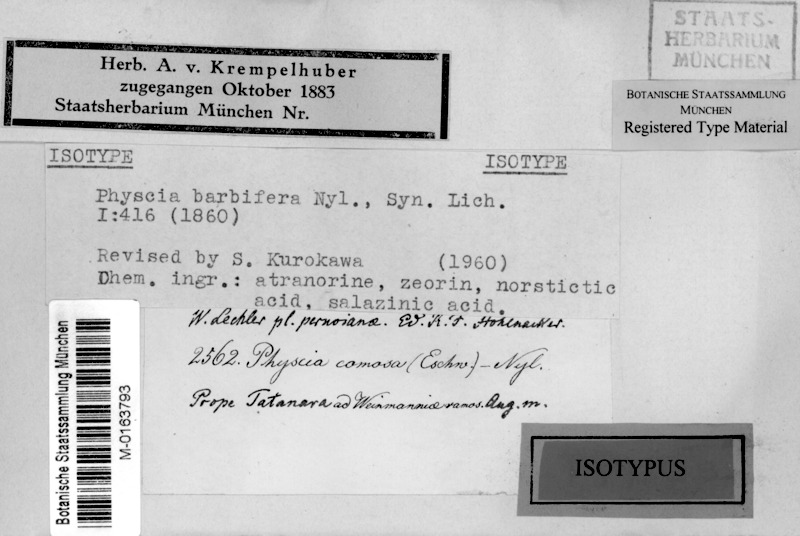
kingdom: Fungi
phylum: Ascomycota
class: Lecanoromycetes
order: Caliciales
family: Physciaceae
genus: Heterodermia
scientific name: Heterodermia barbifera
